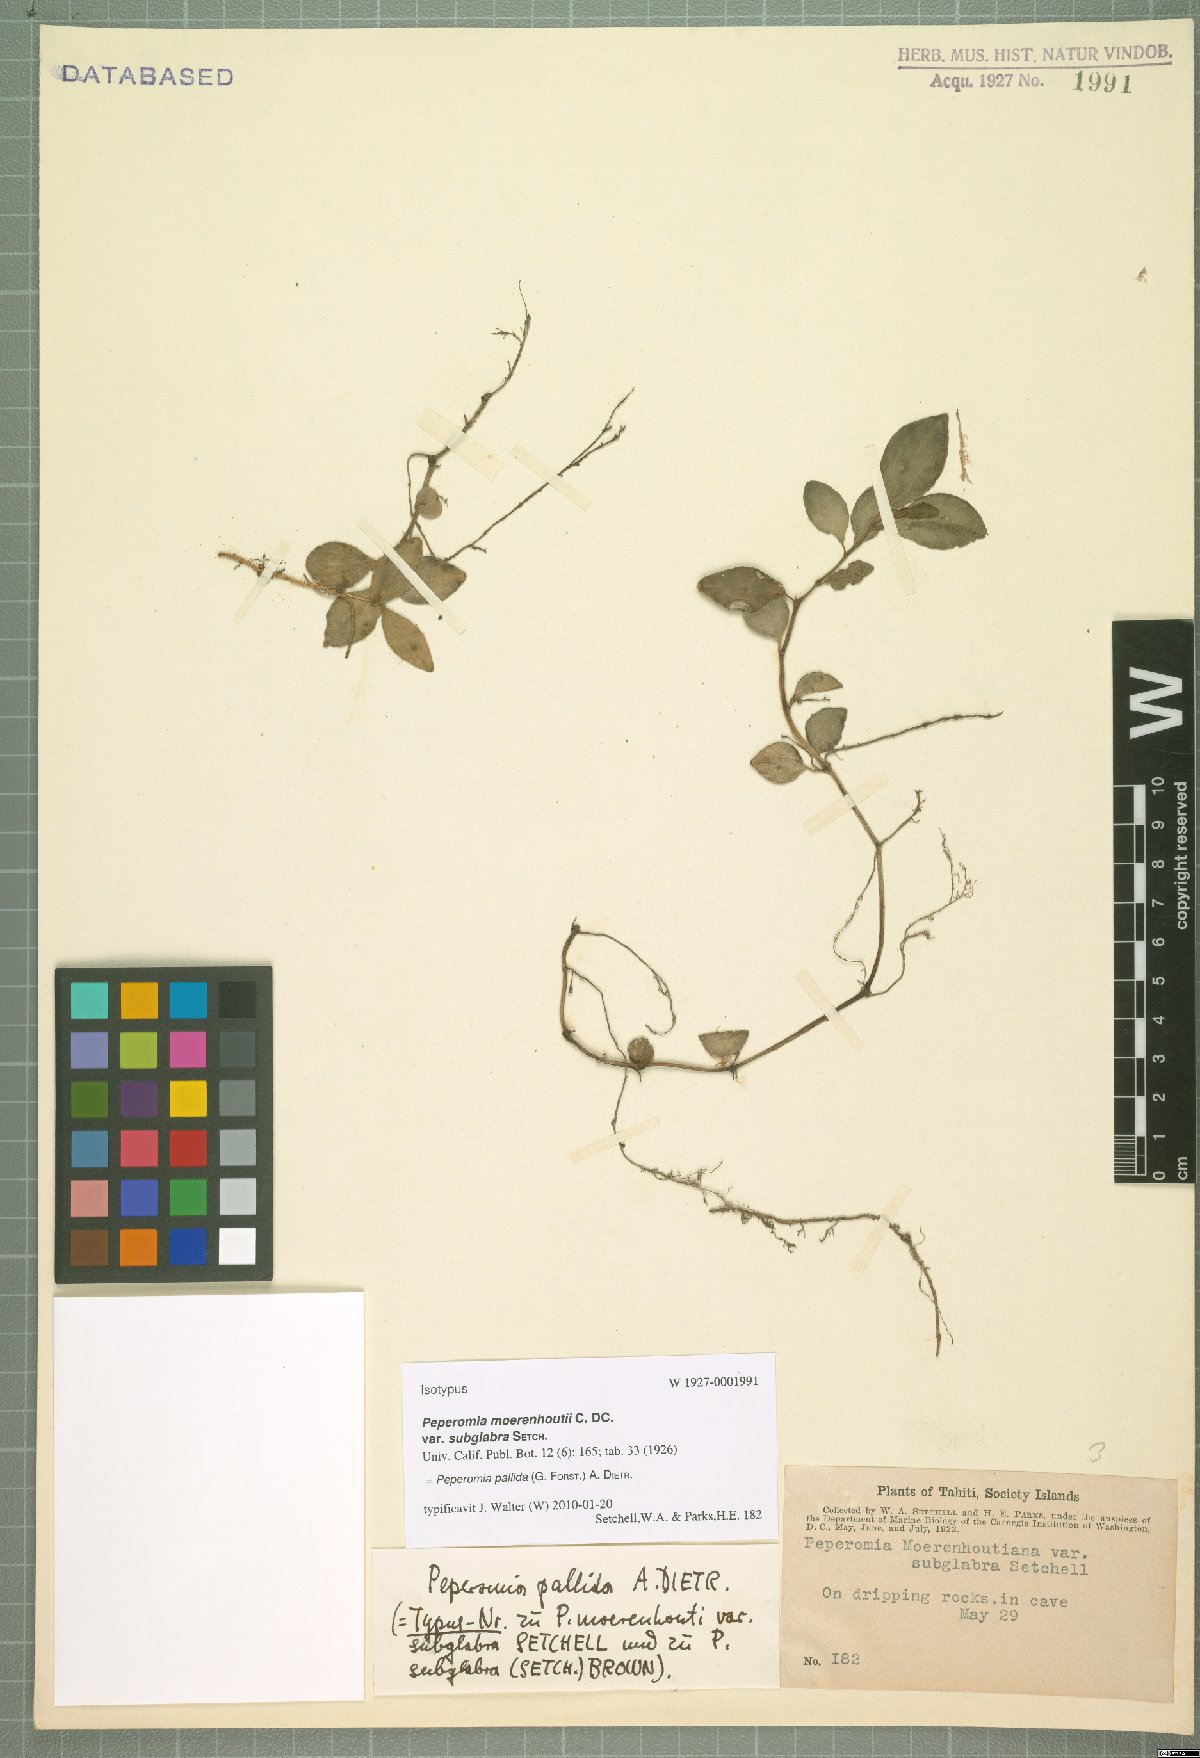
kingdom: Plantae
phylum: Tracheophyta
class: Magnoliopsida
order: Piperales
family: Piperaceae
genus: Peperomia
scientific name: Peperomia pallida
